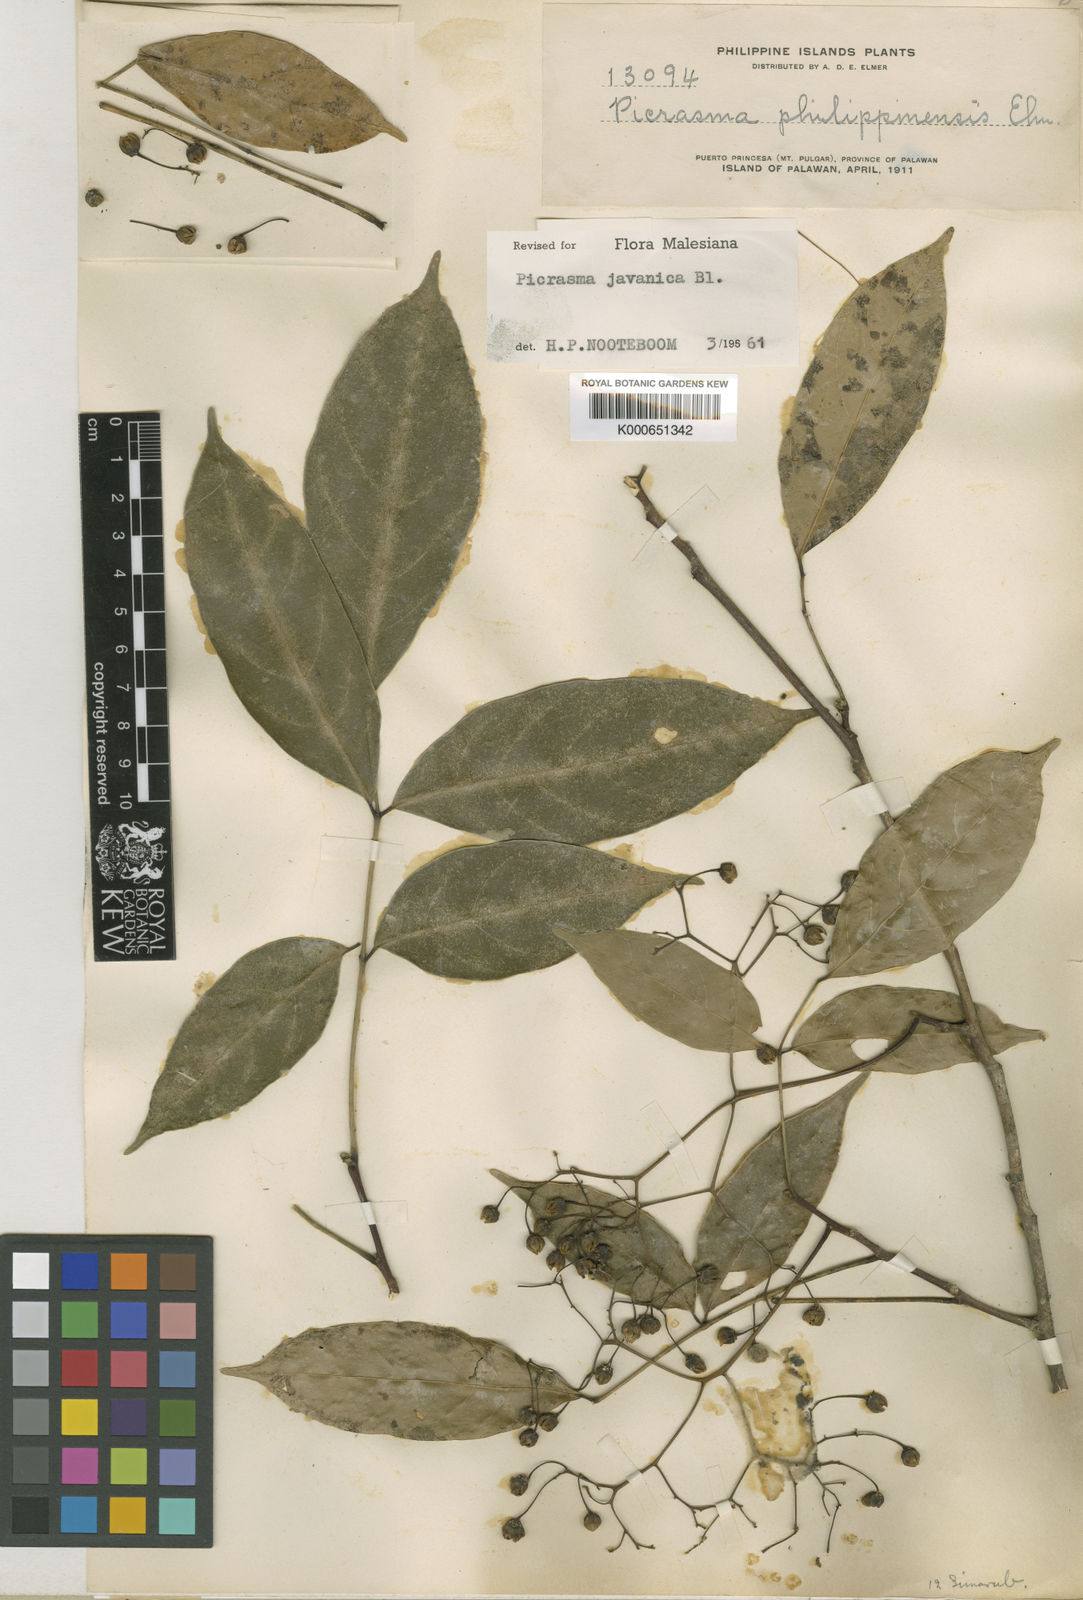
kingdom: Plantae
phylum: Tracheophyta
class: Magnoliopsida
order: Sapindales
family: Simaroubaceae
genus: Picrasma
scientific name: Picrasma javanica
